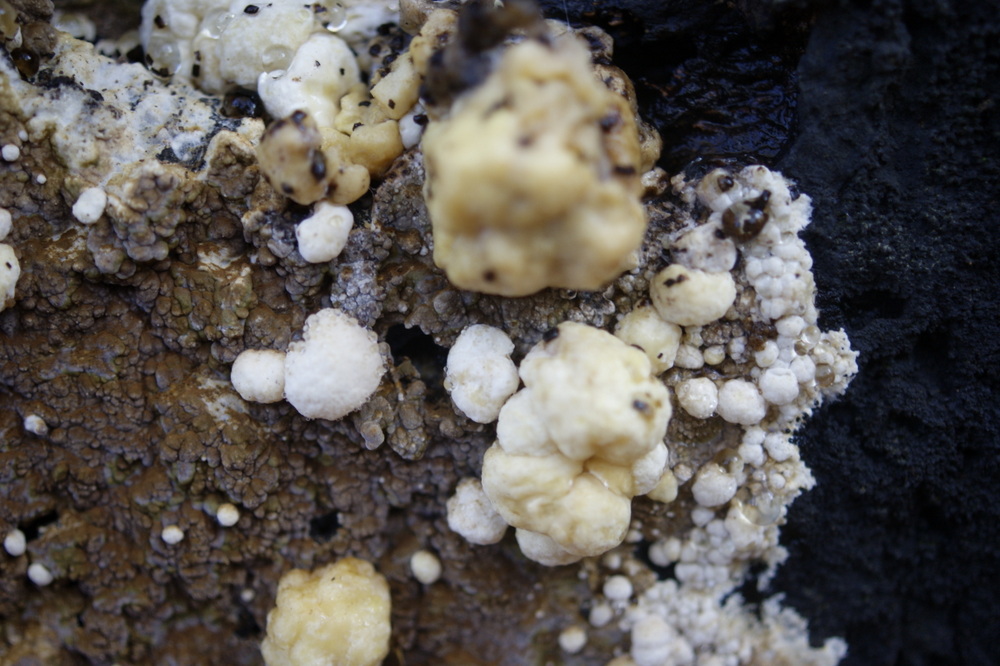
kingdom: Fungi
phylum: Ascomycota
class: Sordariomycetes
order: Xylariales
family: Hypoxylaceae
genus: Nodulisporium
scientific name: Nodulisporium cecidiogenes
